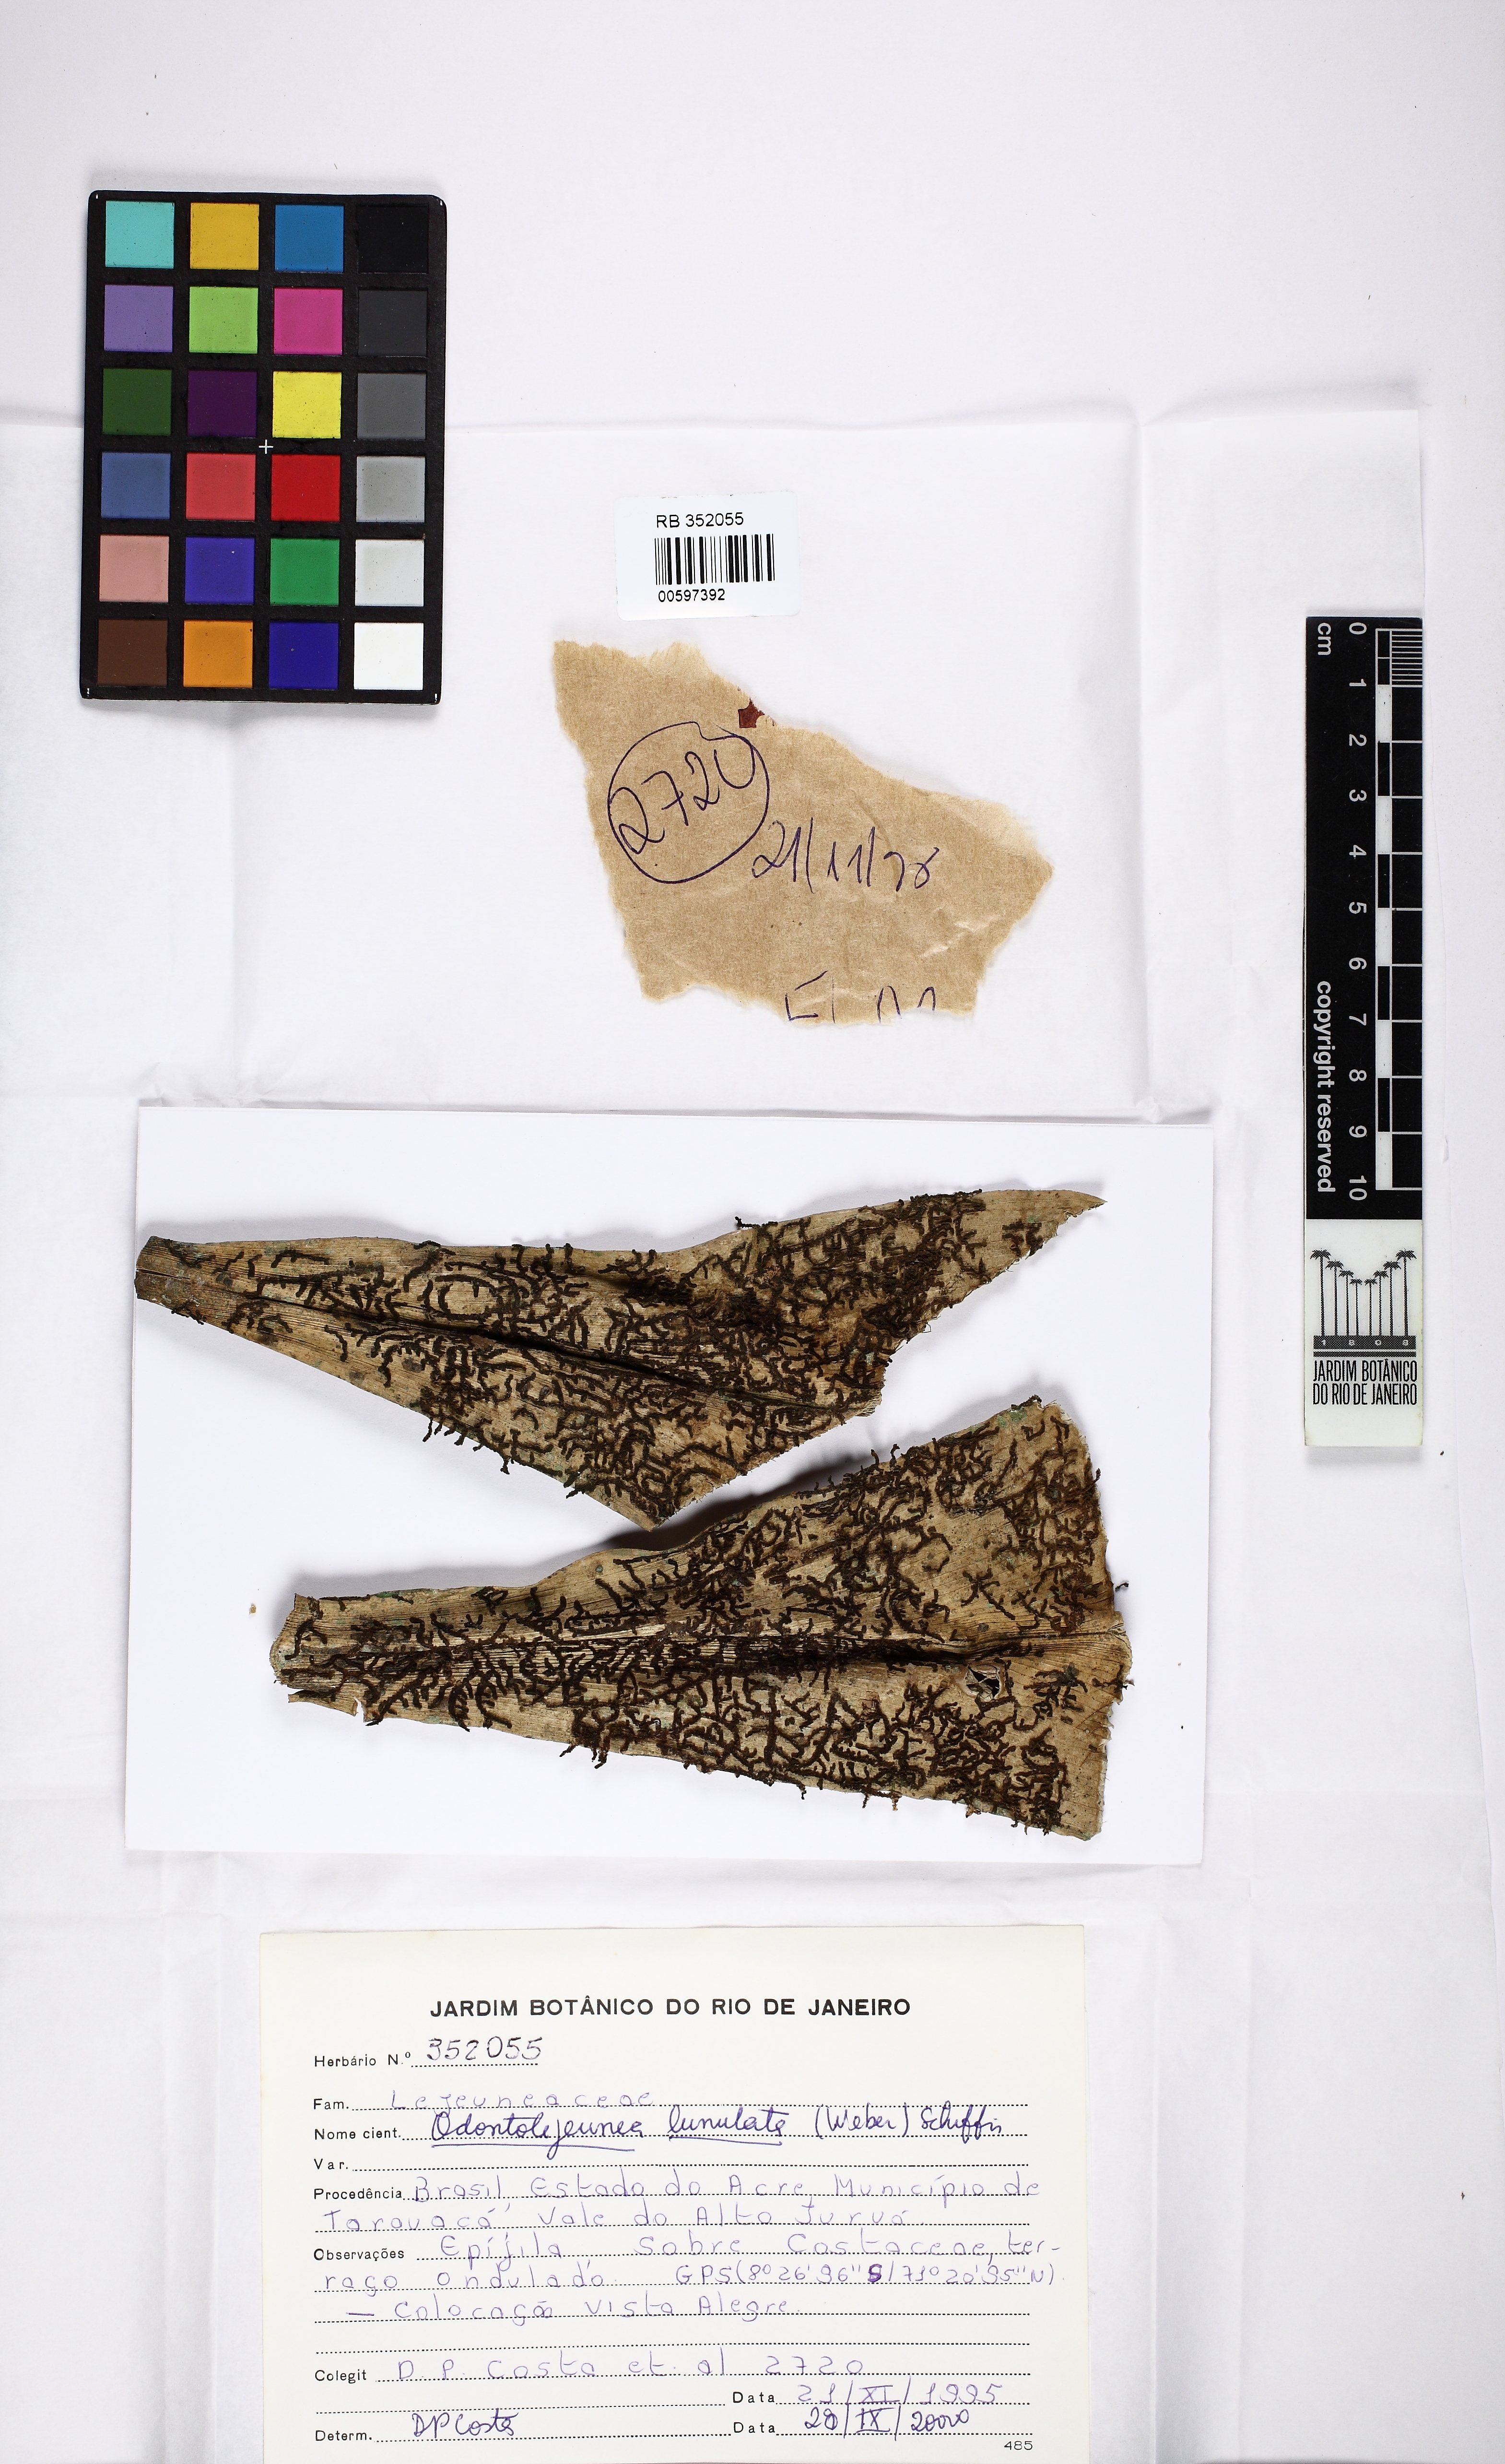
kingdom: Plantae
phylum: Marchantiophyta
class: Jungermanniopsida
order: Porellales
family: Lejeuneaceae
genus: Odontolejeunea
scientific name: Odontolejeunea lunulata
